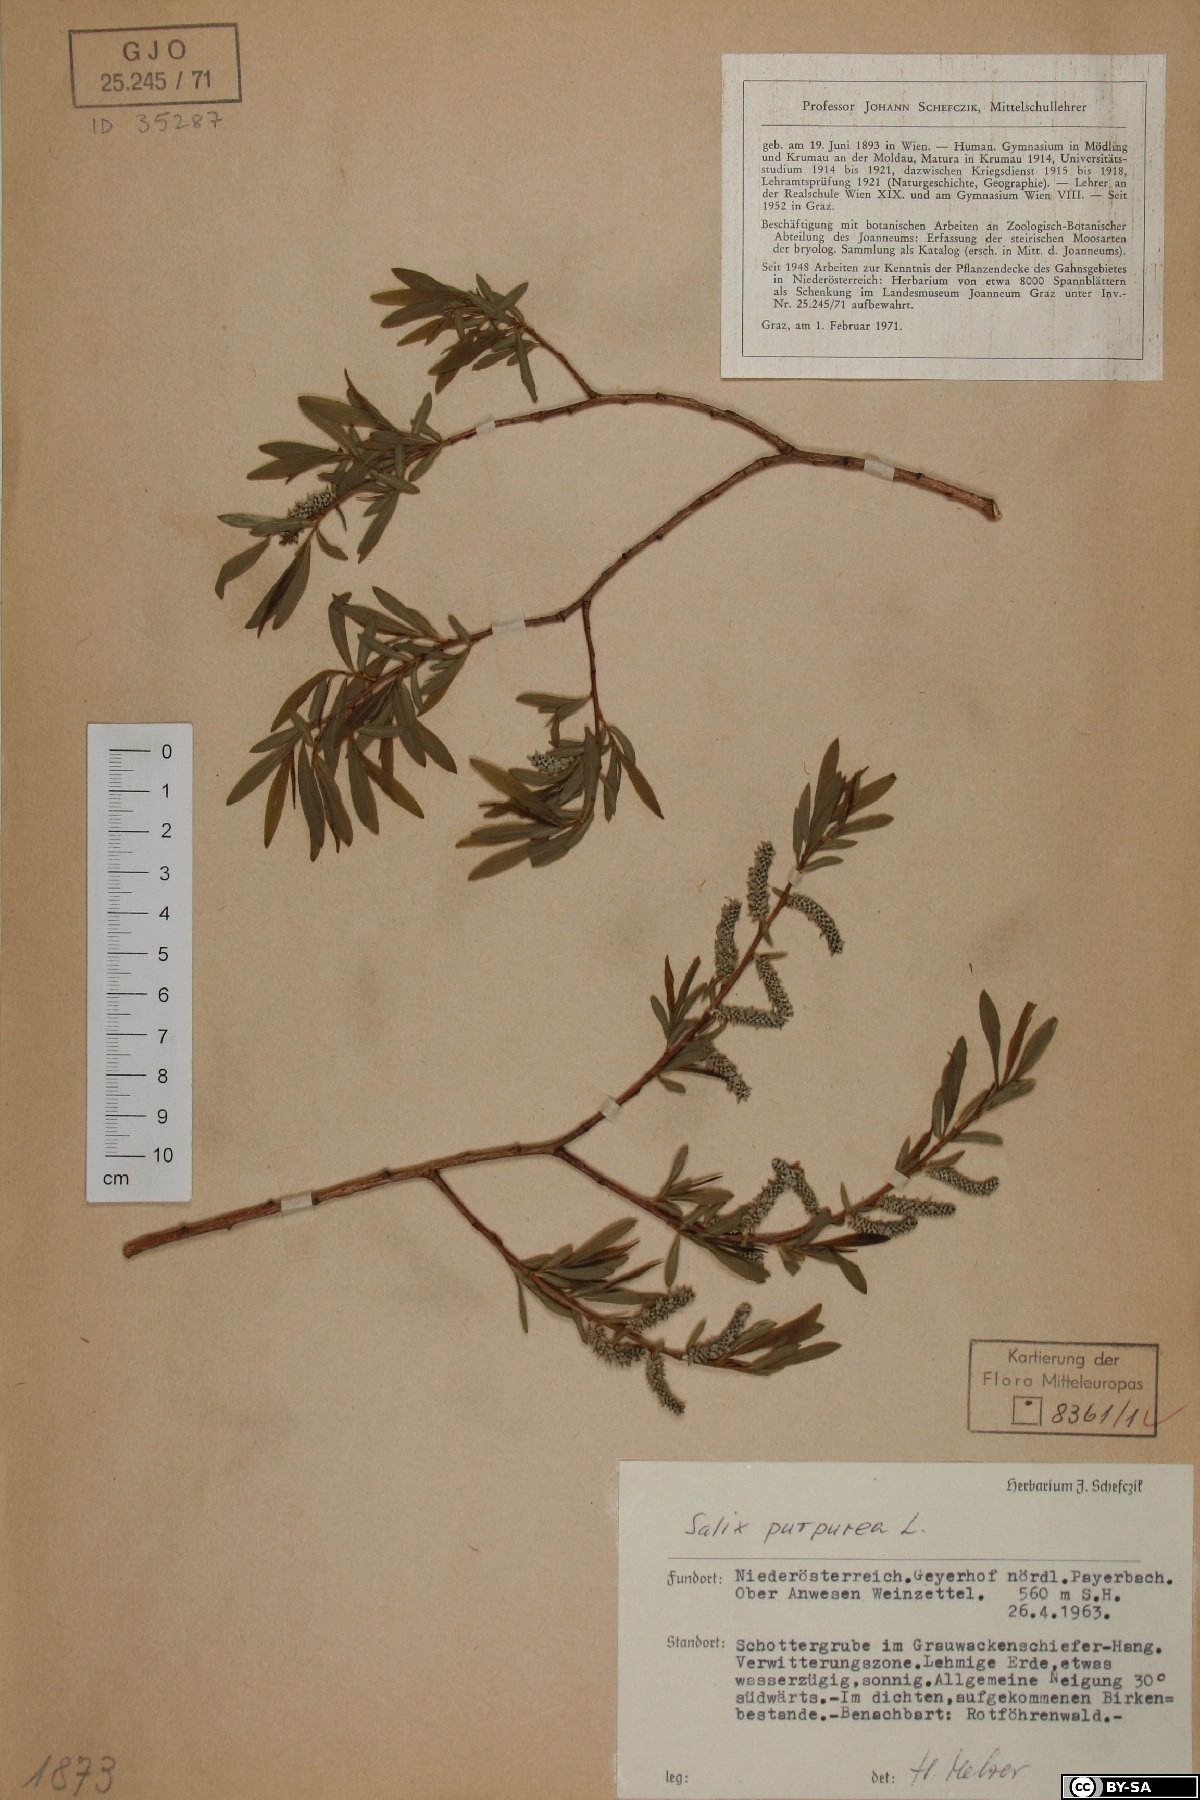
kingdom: Plantae
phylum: Tracheophyta
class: Magnoliopsida
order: Malpighiales
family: Salicaceae
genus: Salix
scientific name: Salix purpurea
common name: Purple willow
